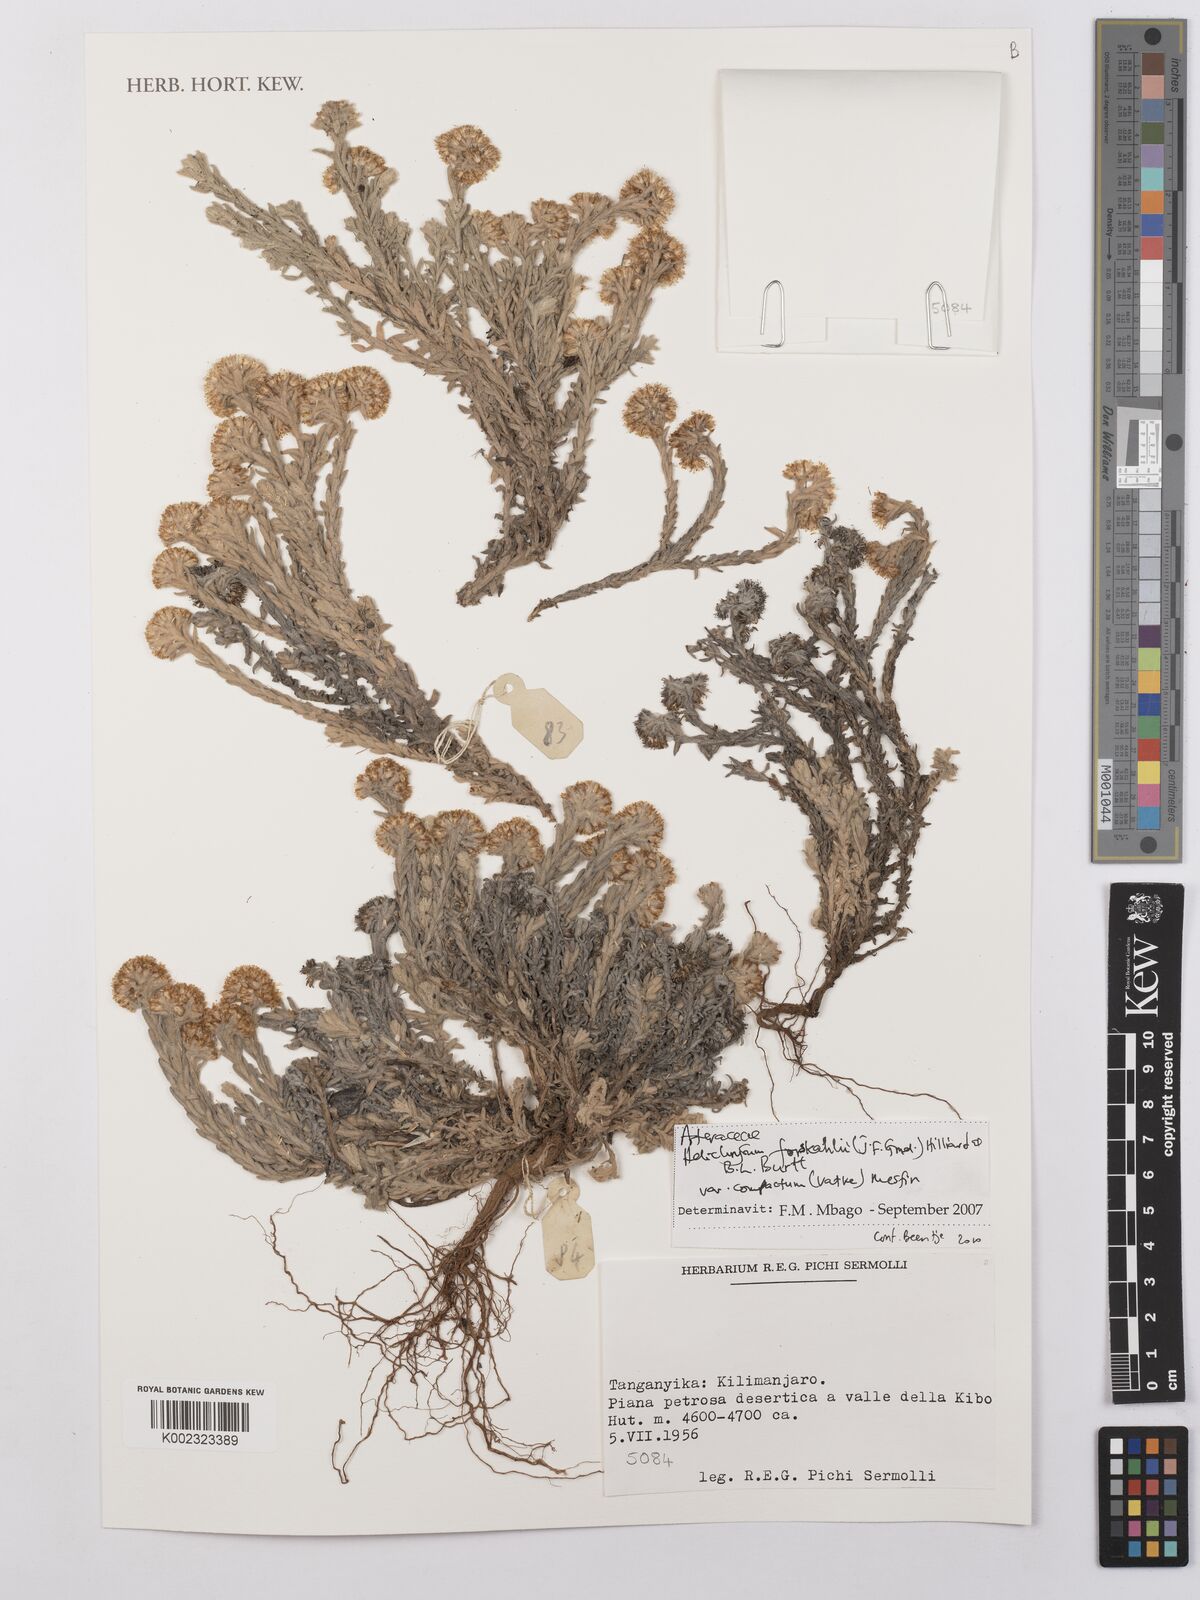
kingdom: Plantae
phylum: Tracheophyta
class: Magnoliopsida
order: Asterales
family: Asteraceae
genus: Helichrysum
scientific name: Helichrysum forskahlii
